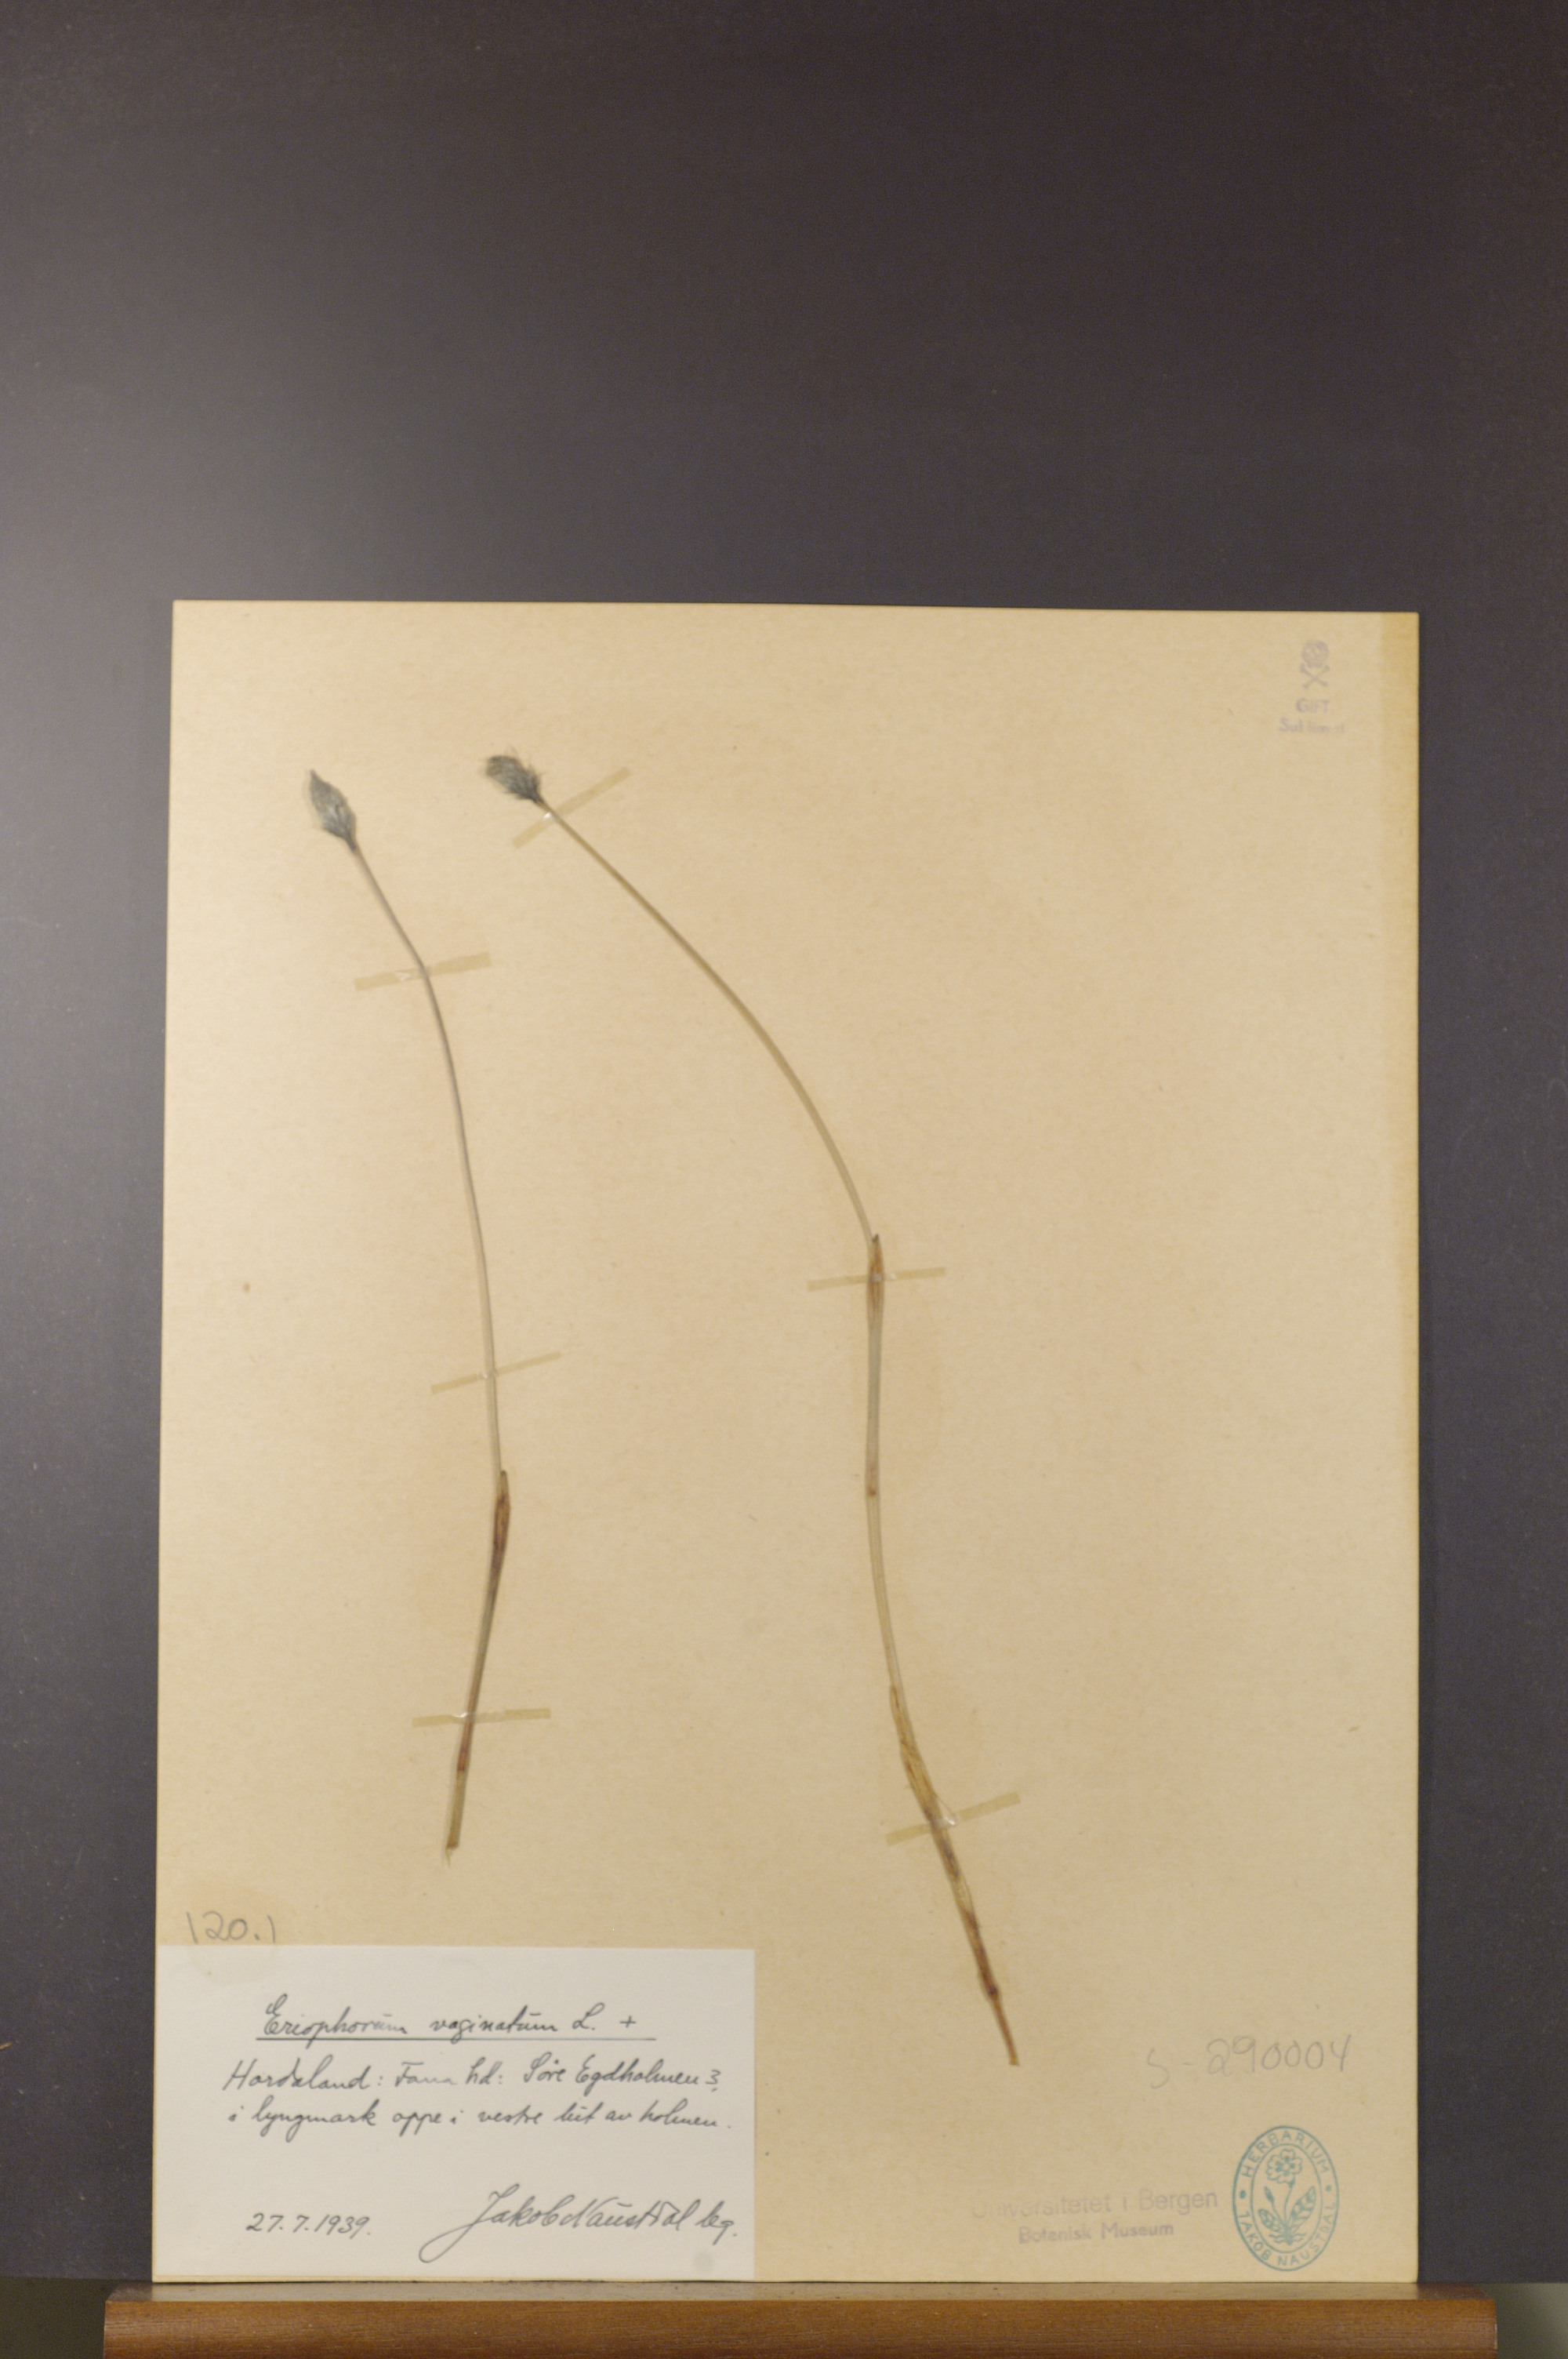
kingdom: Plantae
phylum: Tracheophyta
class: Liliopsida
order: Poales
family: Cyperaceae
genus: Eriophorum
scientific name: Eriophorum vaginatum
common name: Hare's-tail cottongrass
